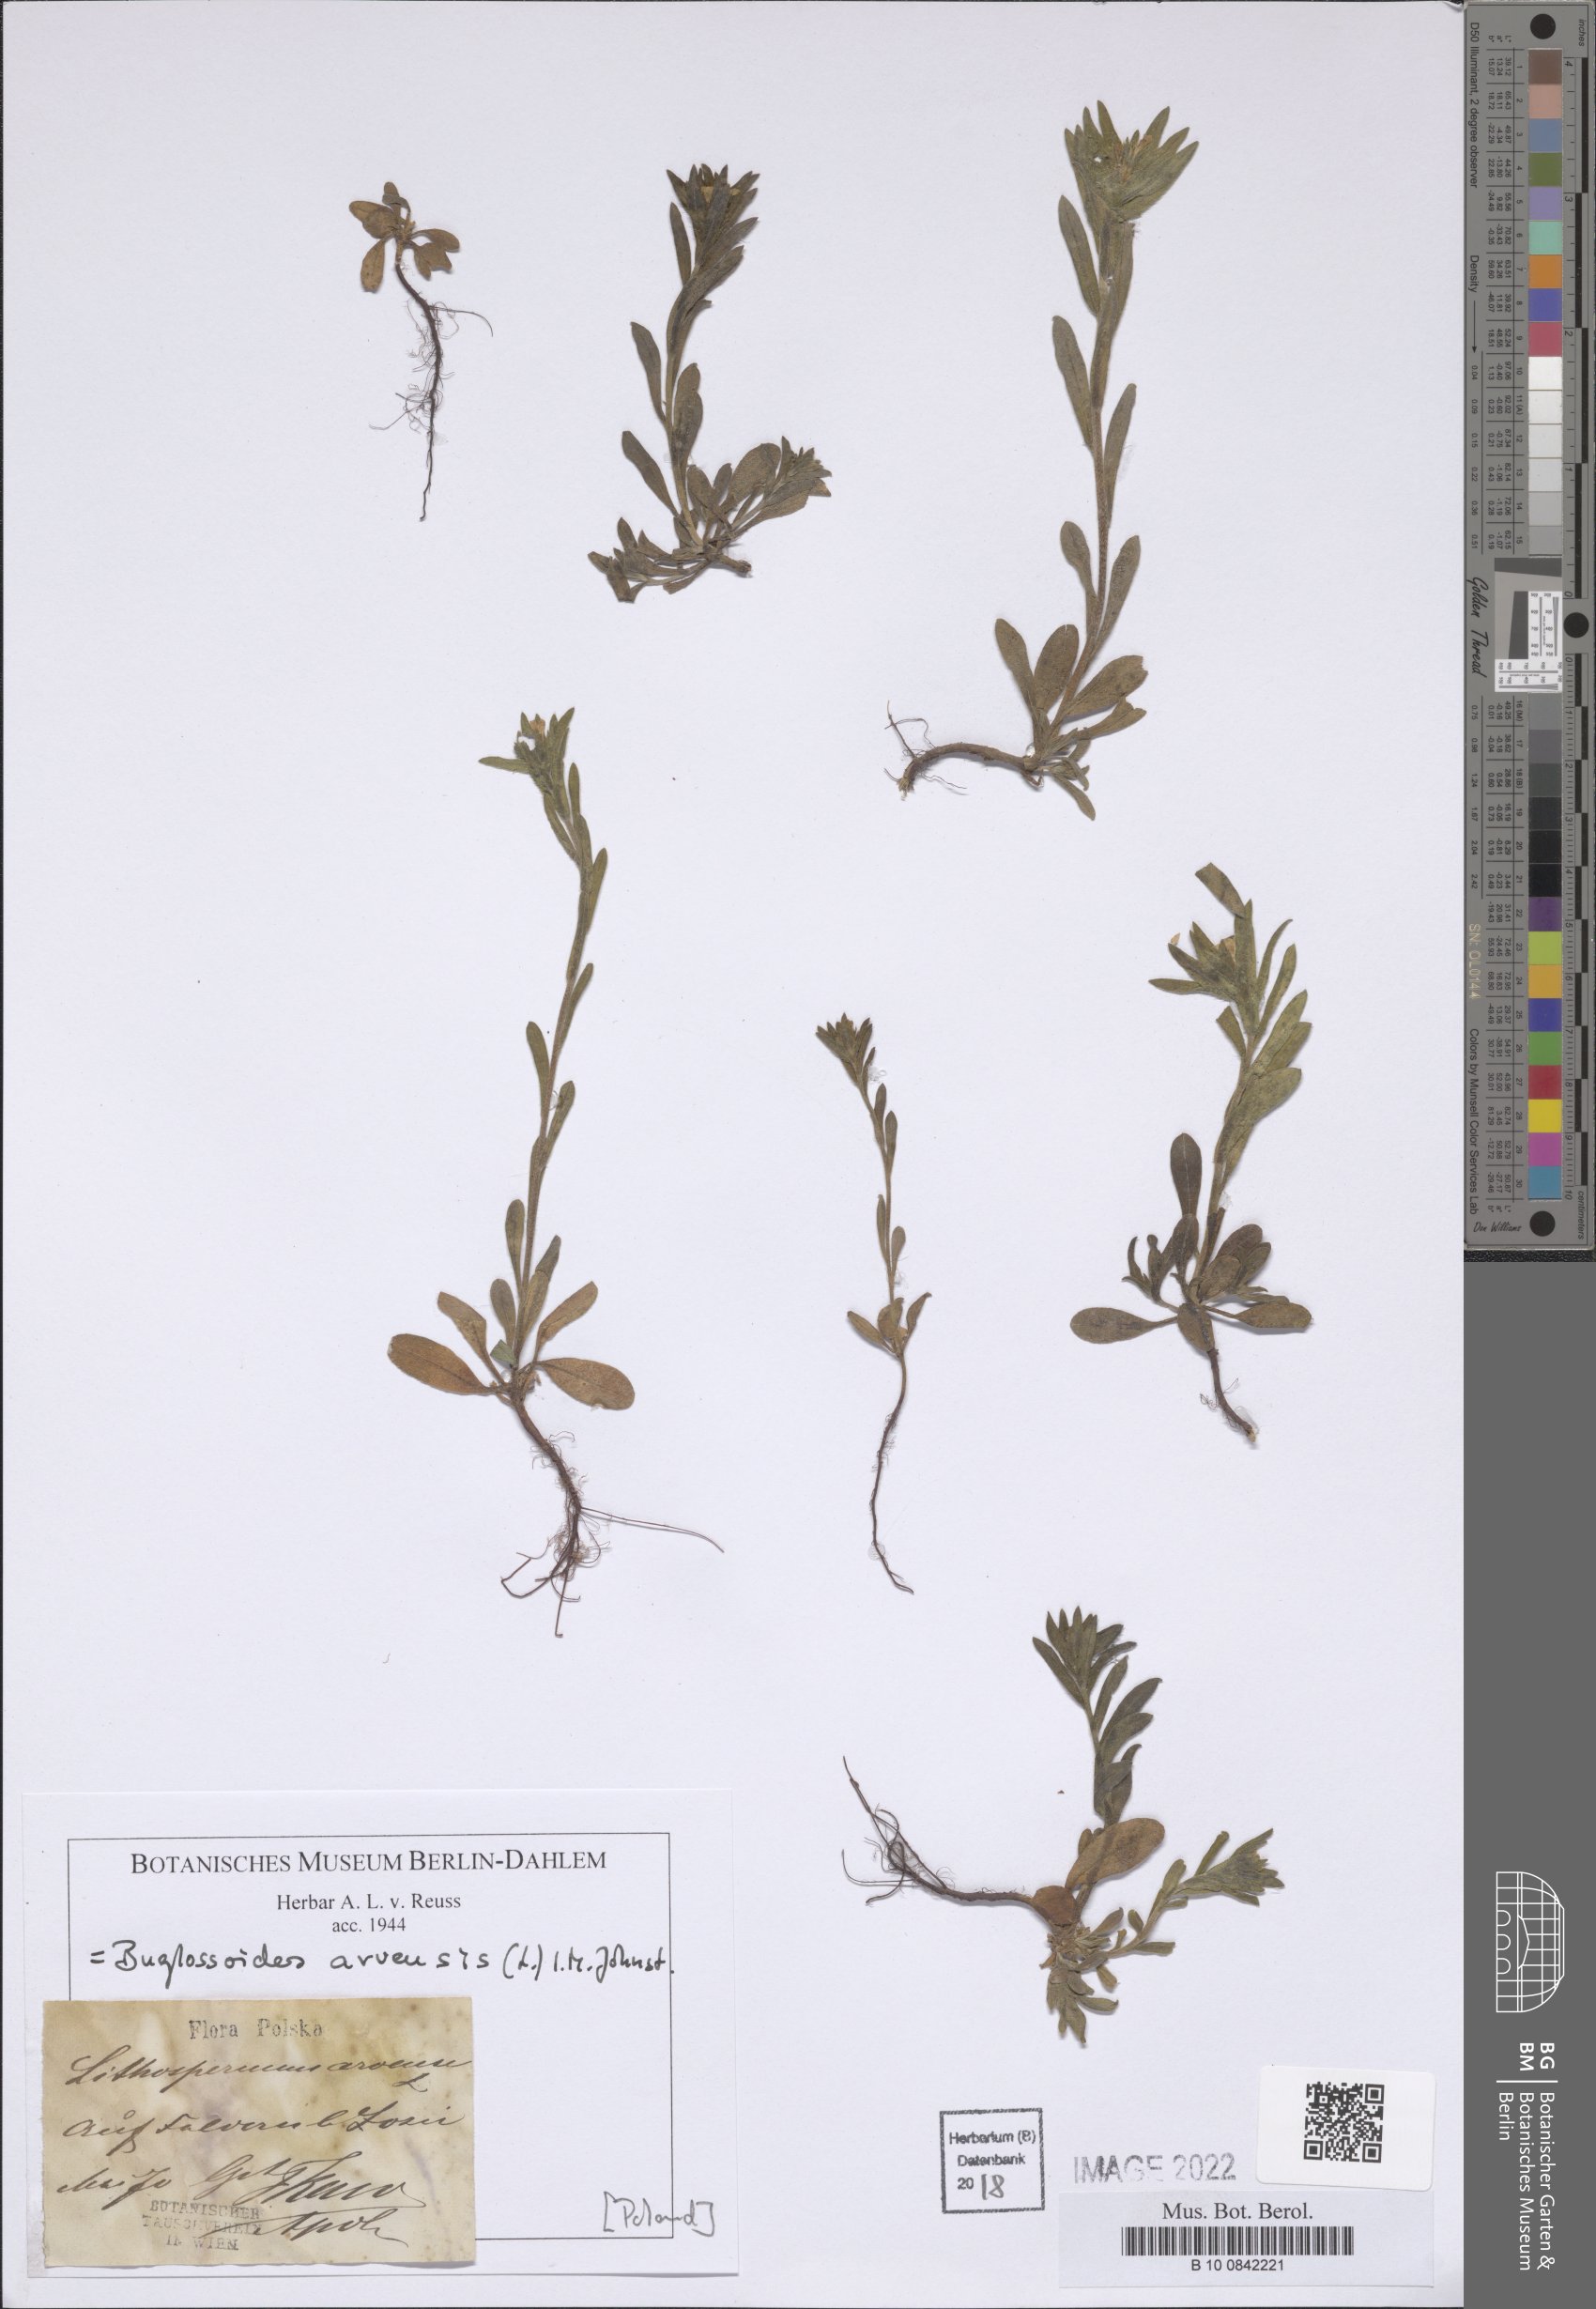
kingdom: Plantae
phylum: Tracheophyta
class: Magnoliopsida
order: Boraginales
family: Boraginaceae
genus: Buglossoides
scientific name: Buglossoides arvensis
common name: Corn gromwell
